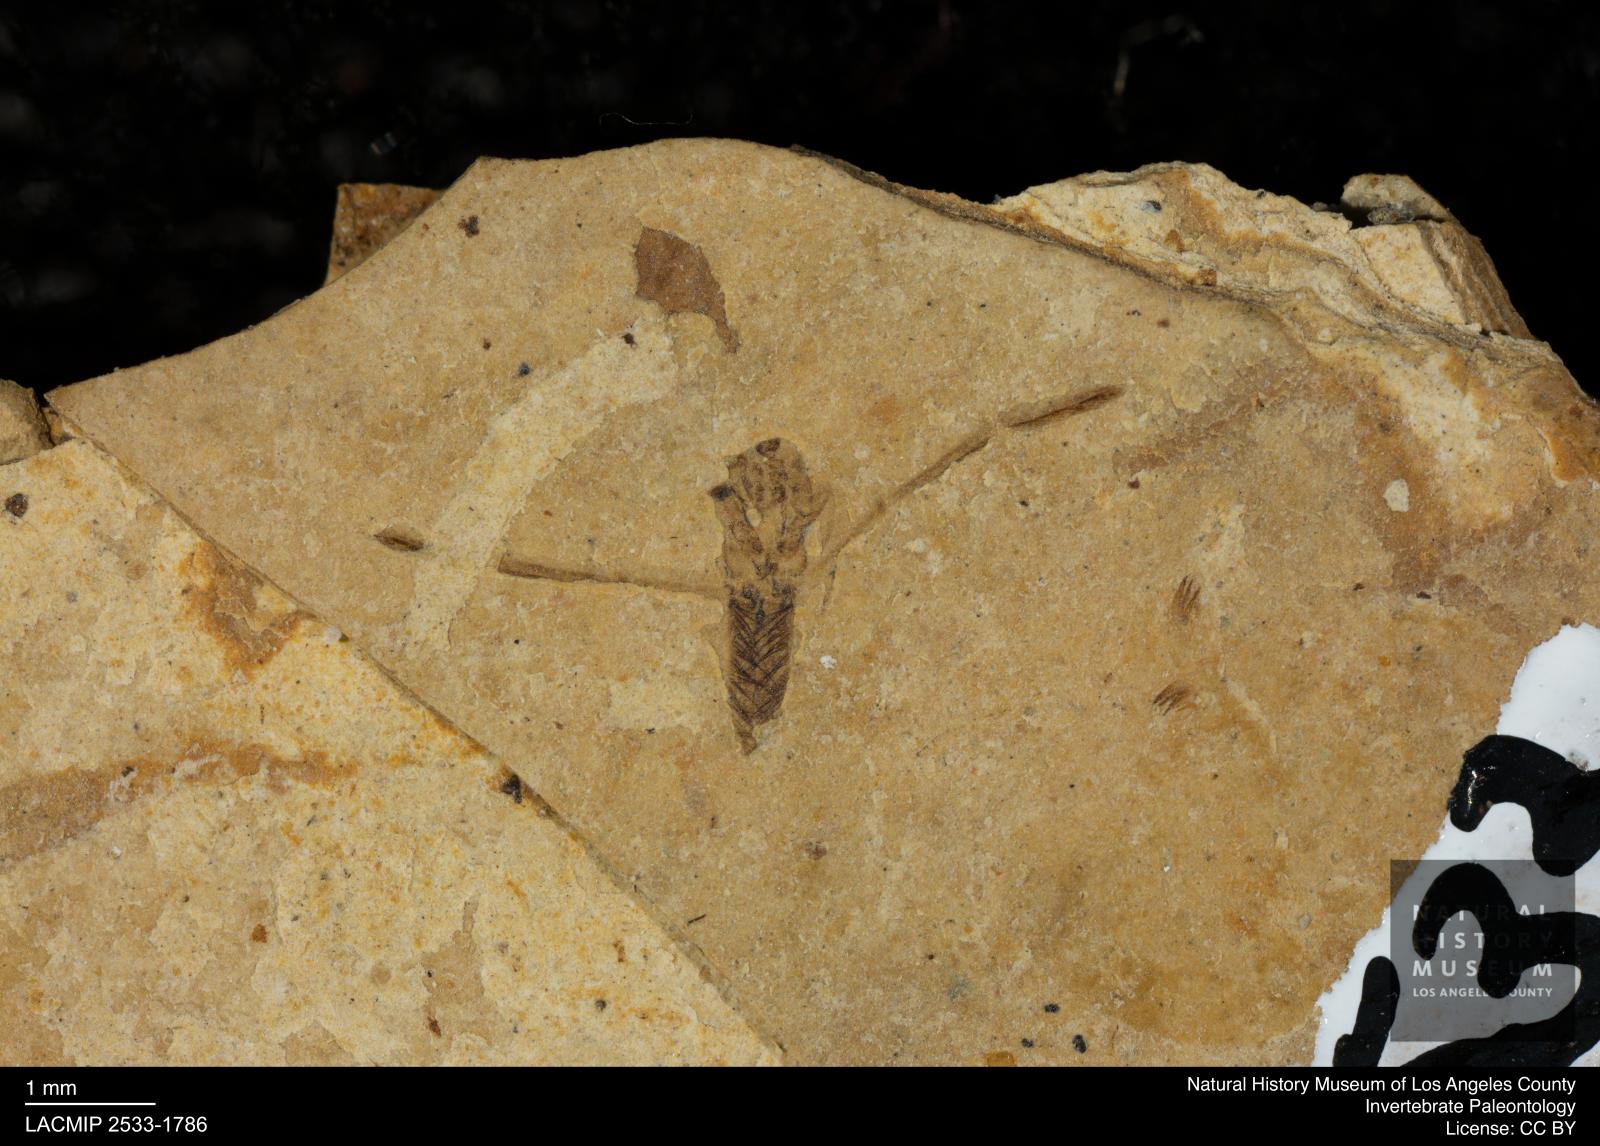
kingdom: Animalia
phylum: Arthropoda
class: Insecta
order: Hemiptera
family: Notonectidae
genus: Notonecta
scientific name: Notonecta
